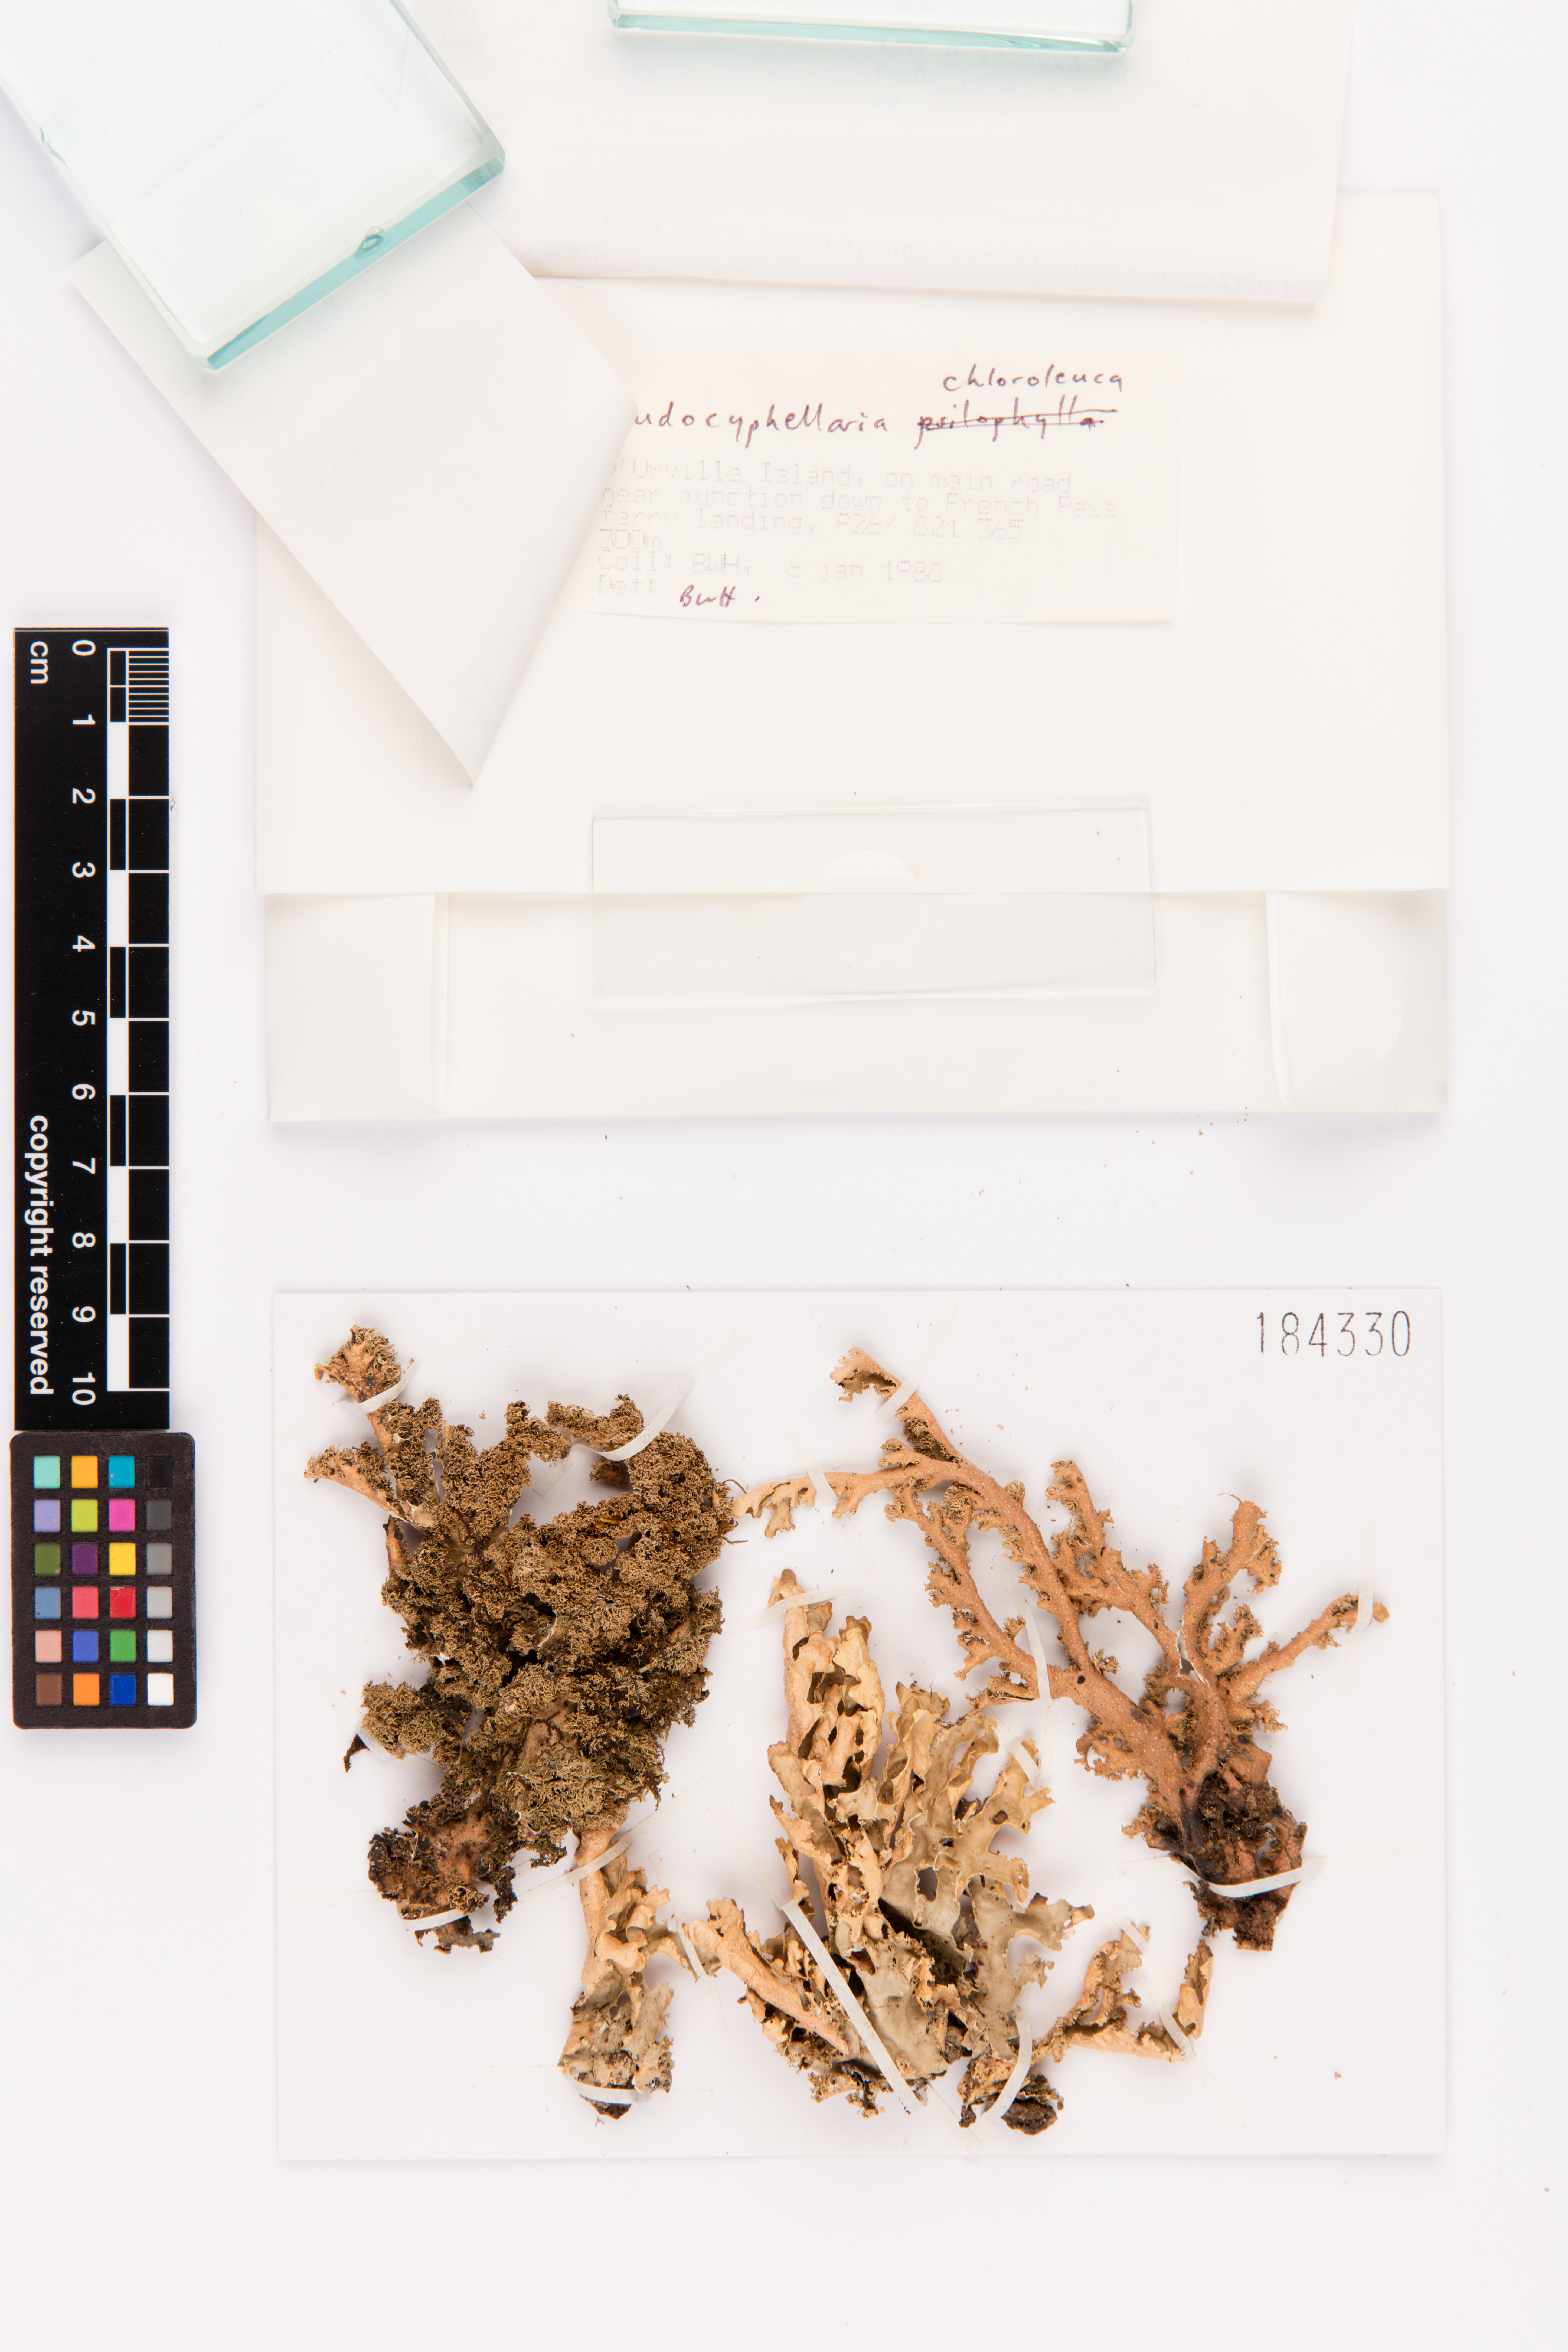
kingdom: Fungi
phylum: Ascomycota
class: Lecanoromycetes
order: Peltigerales
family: Lobariaceae
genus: Pseudocyphellaria
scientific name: Pseudocyphellaria chloroleuca
